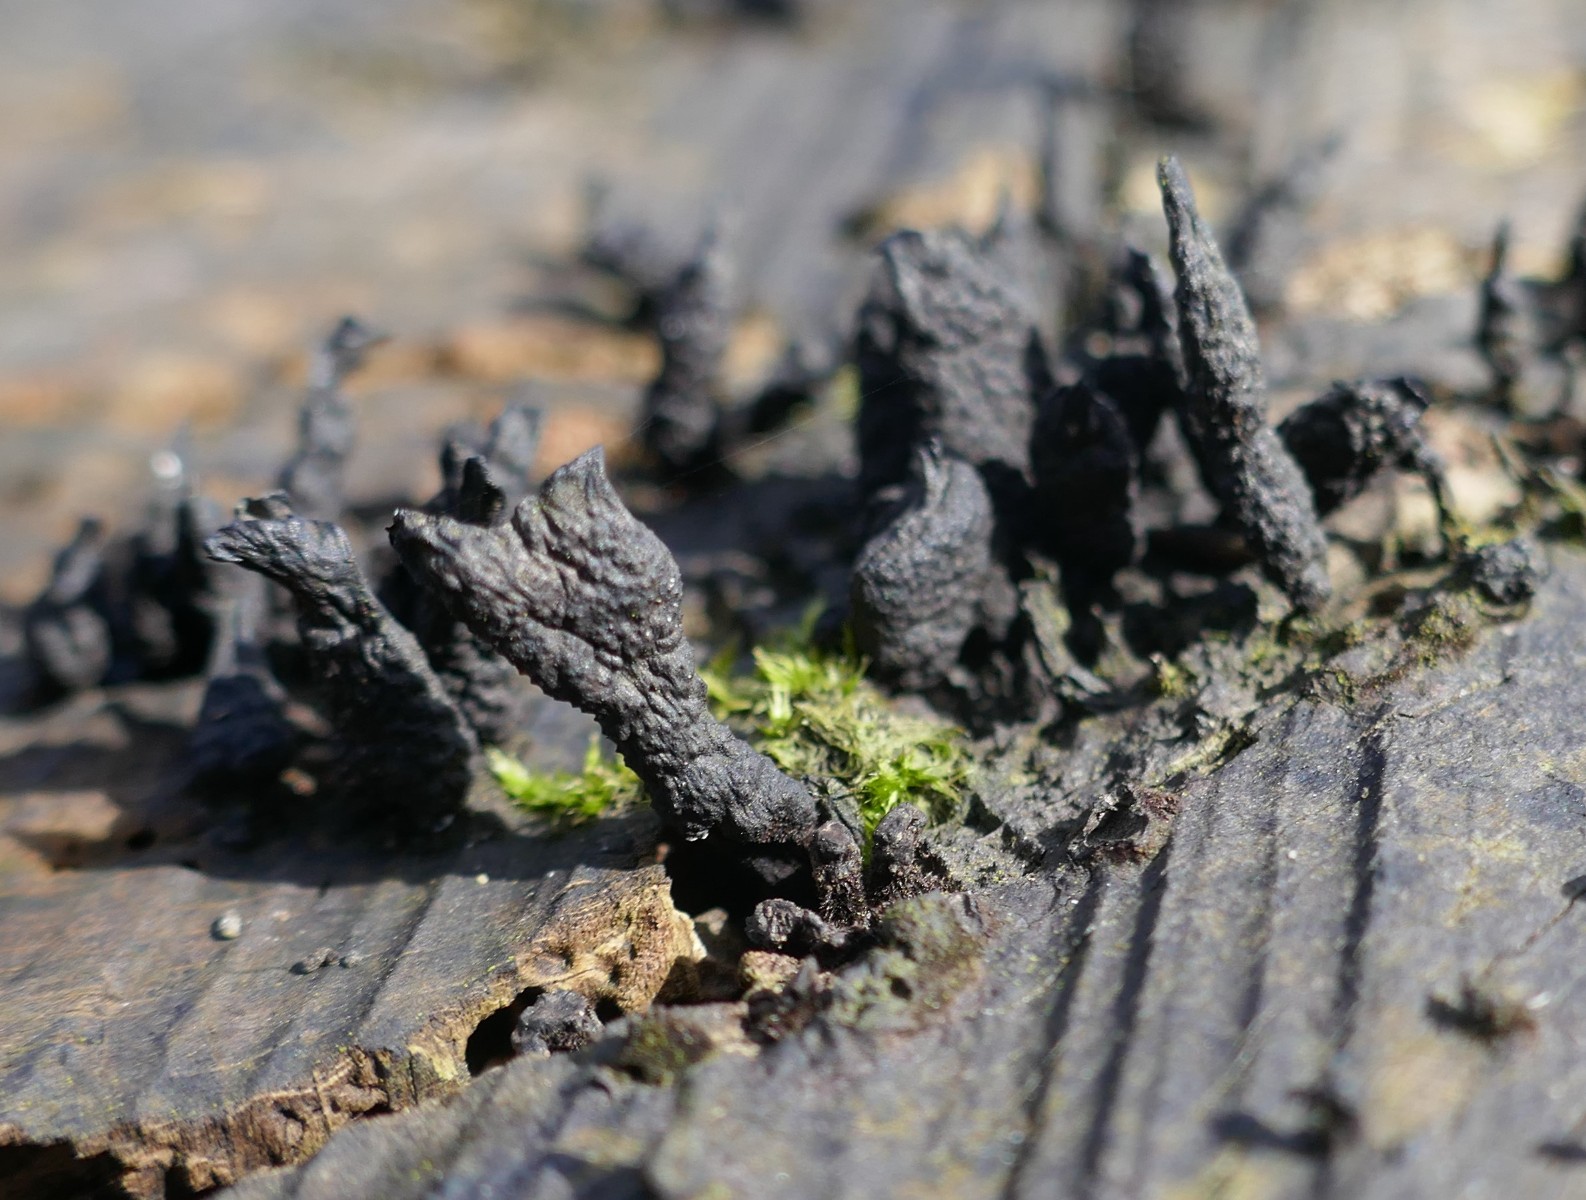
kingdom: Fungi
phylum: Ascomycota
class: Sordariomycetes
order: Xylariales
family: Xylariaceae
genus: Xylaria
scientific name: Xylaria hypoxylon
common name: grenet stødsvamp
